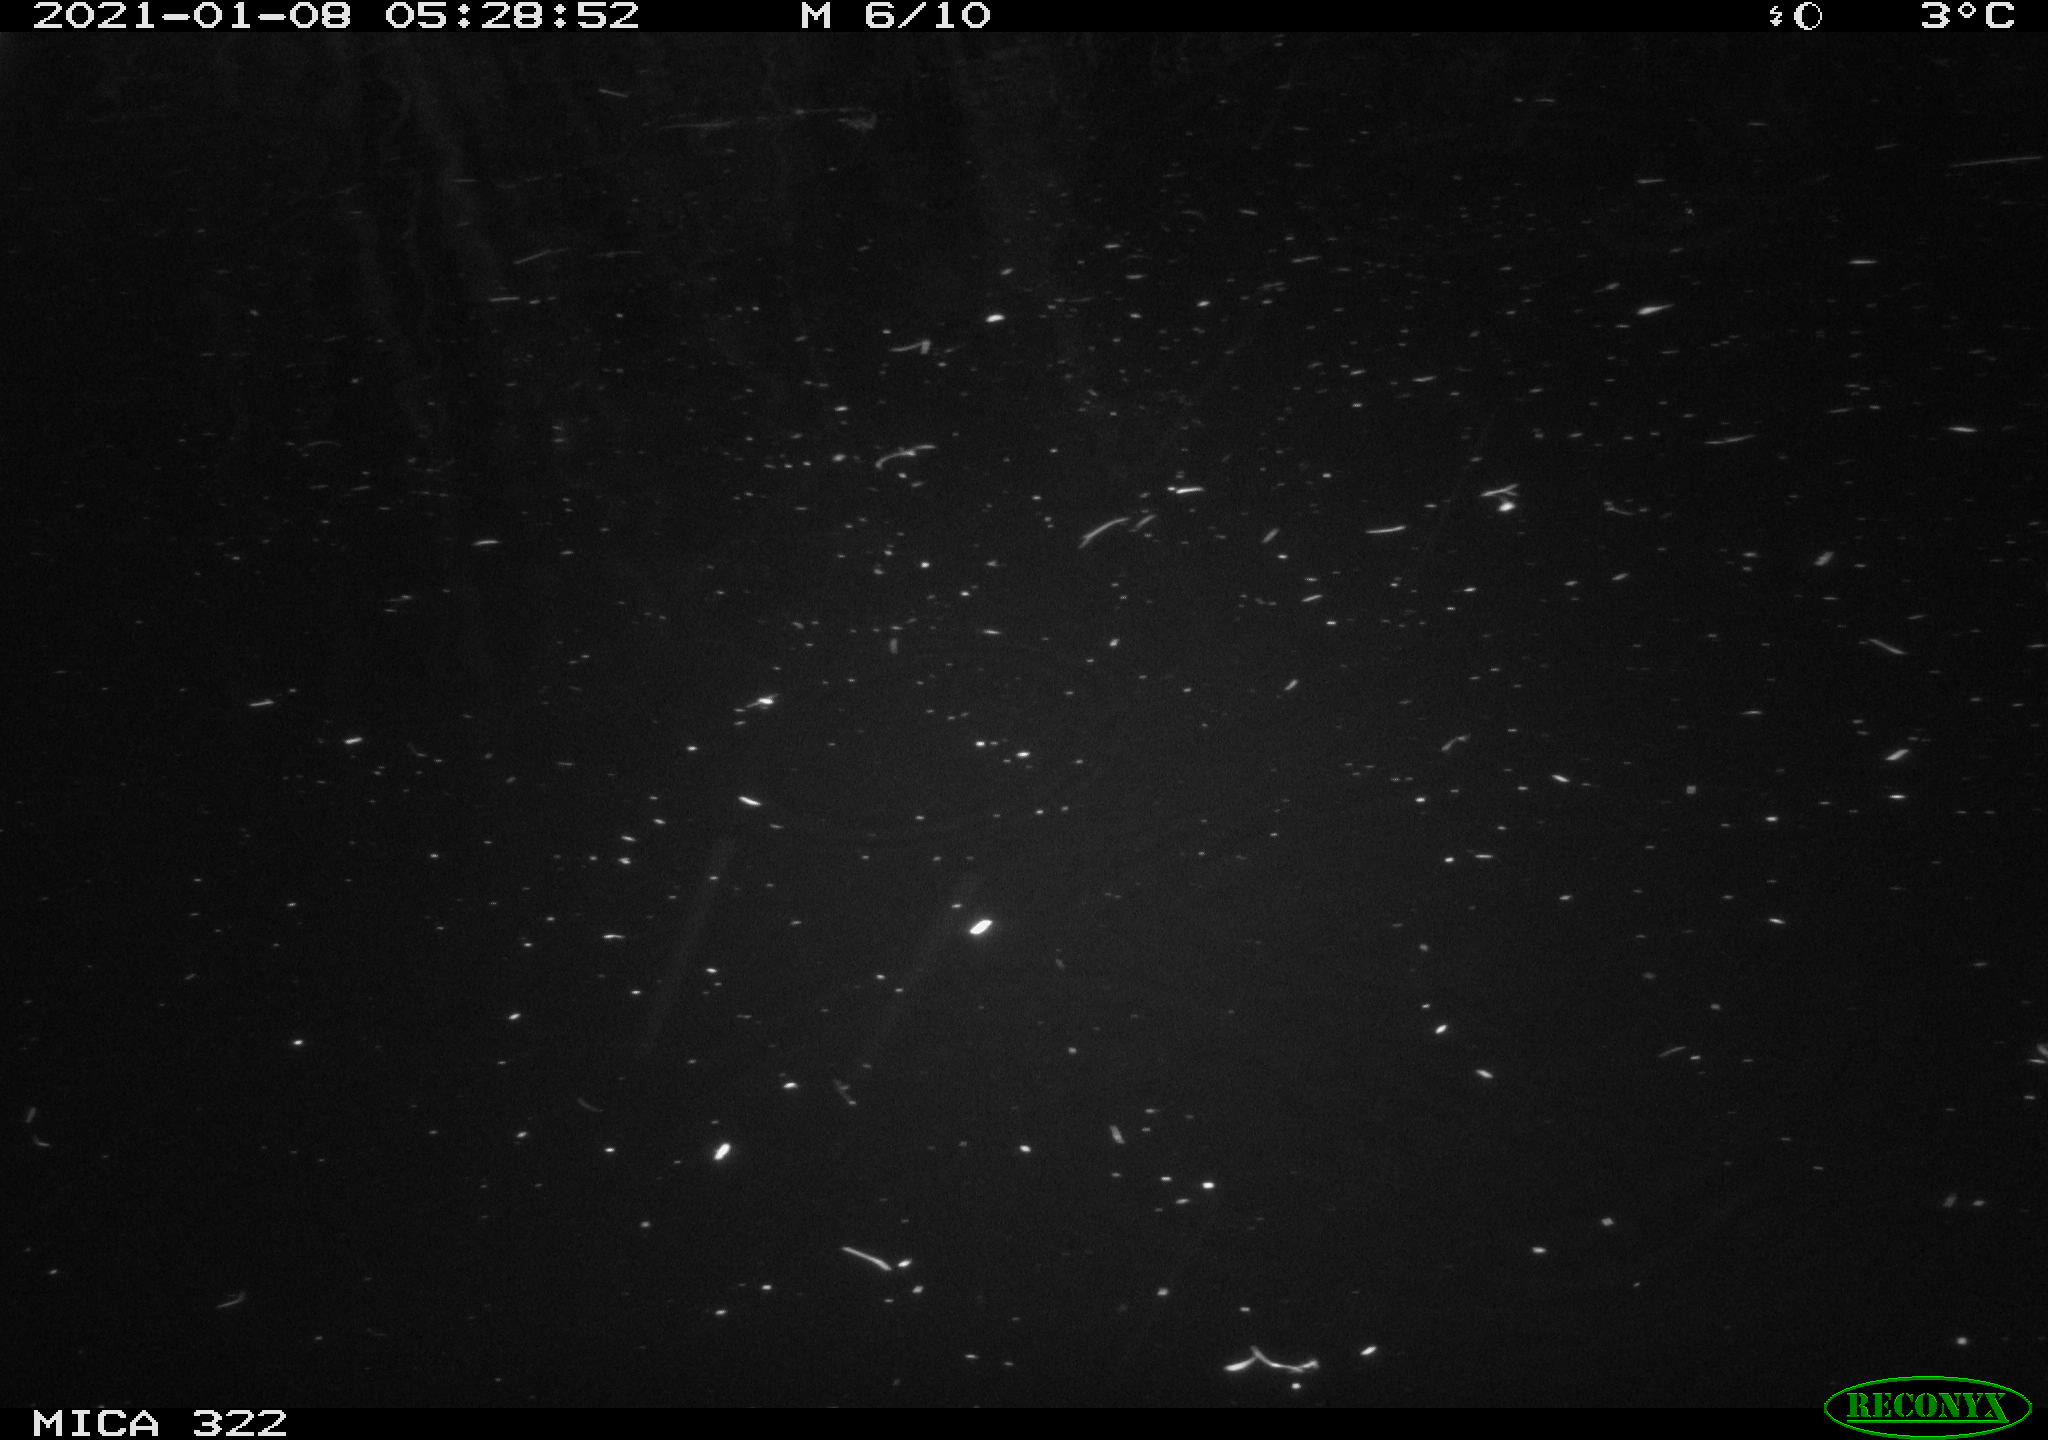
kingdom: Animalia
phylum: Chordata
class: Mammalia
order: Rodentia
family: Muridae
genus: Rattus
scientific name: Rattus norvegicus
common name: Brown rat
